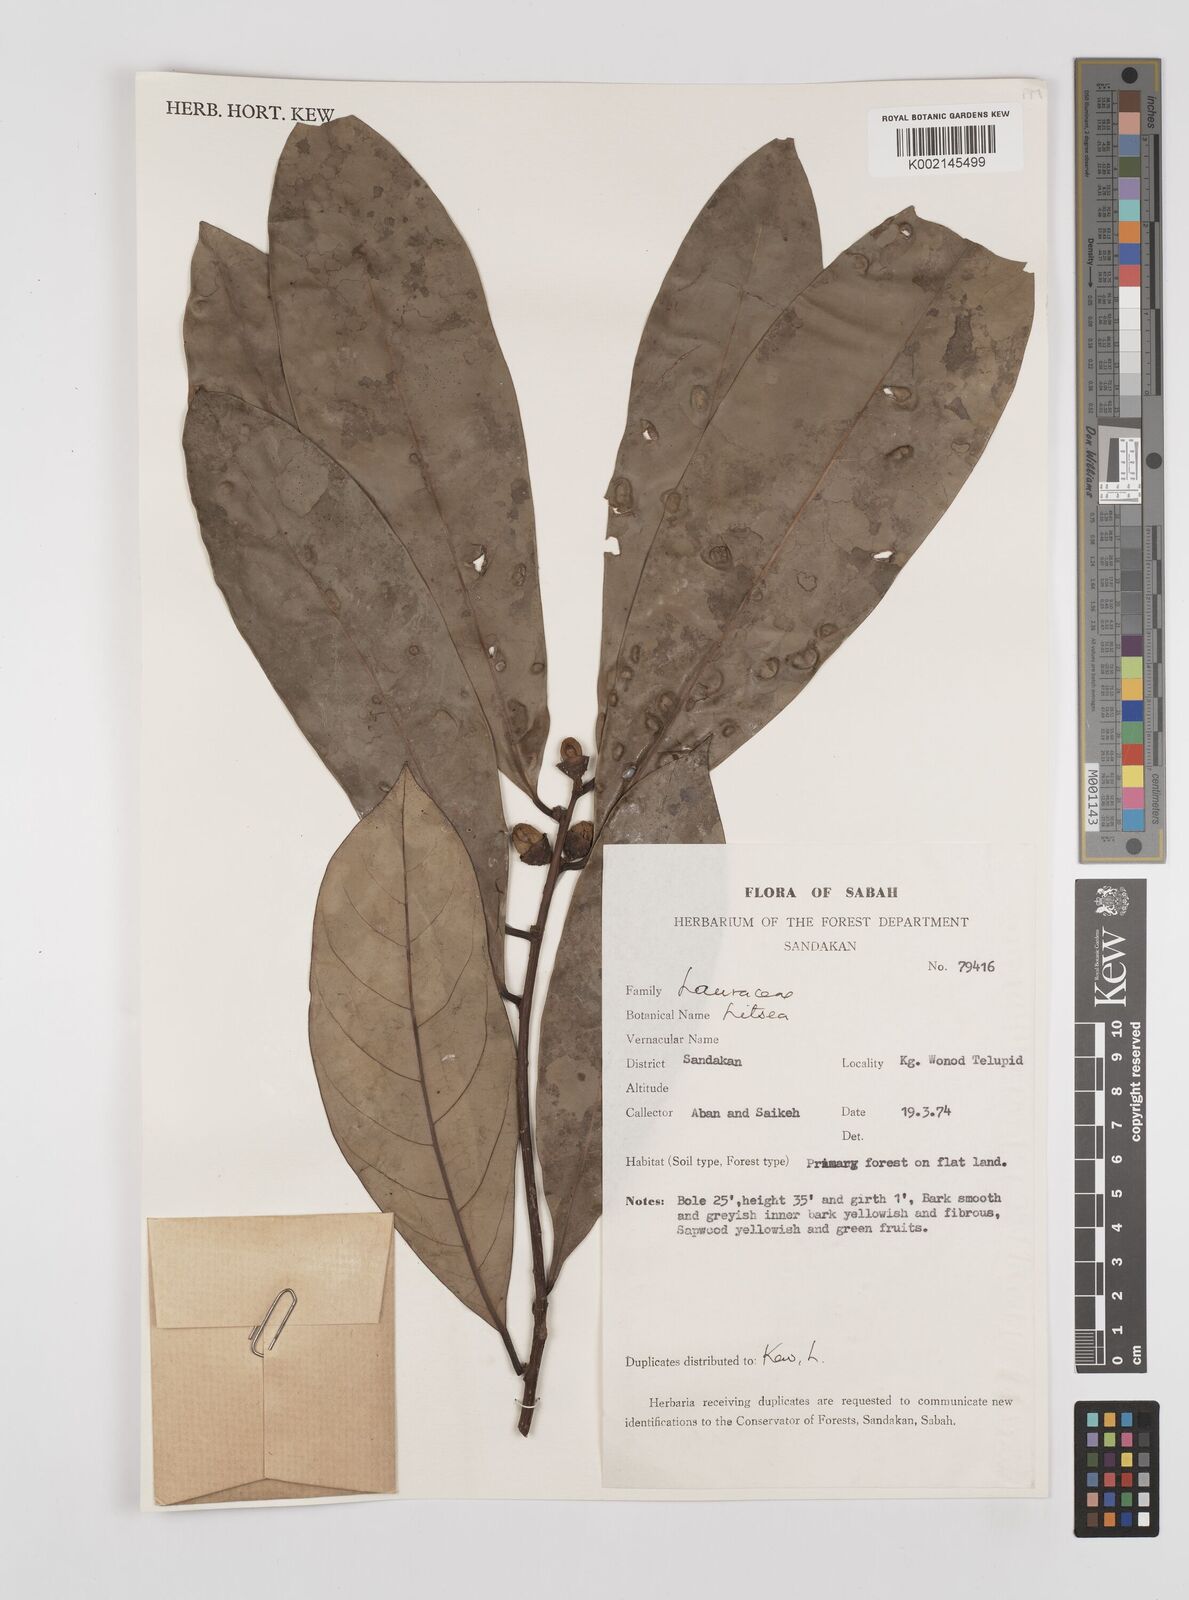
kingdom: Plantae
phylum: Tracheophyta
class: Magnoliopsida
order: Laurales
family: Lauraceae
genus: Litsea
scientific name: Litsea
